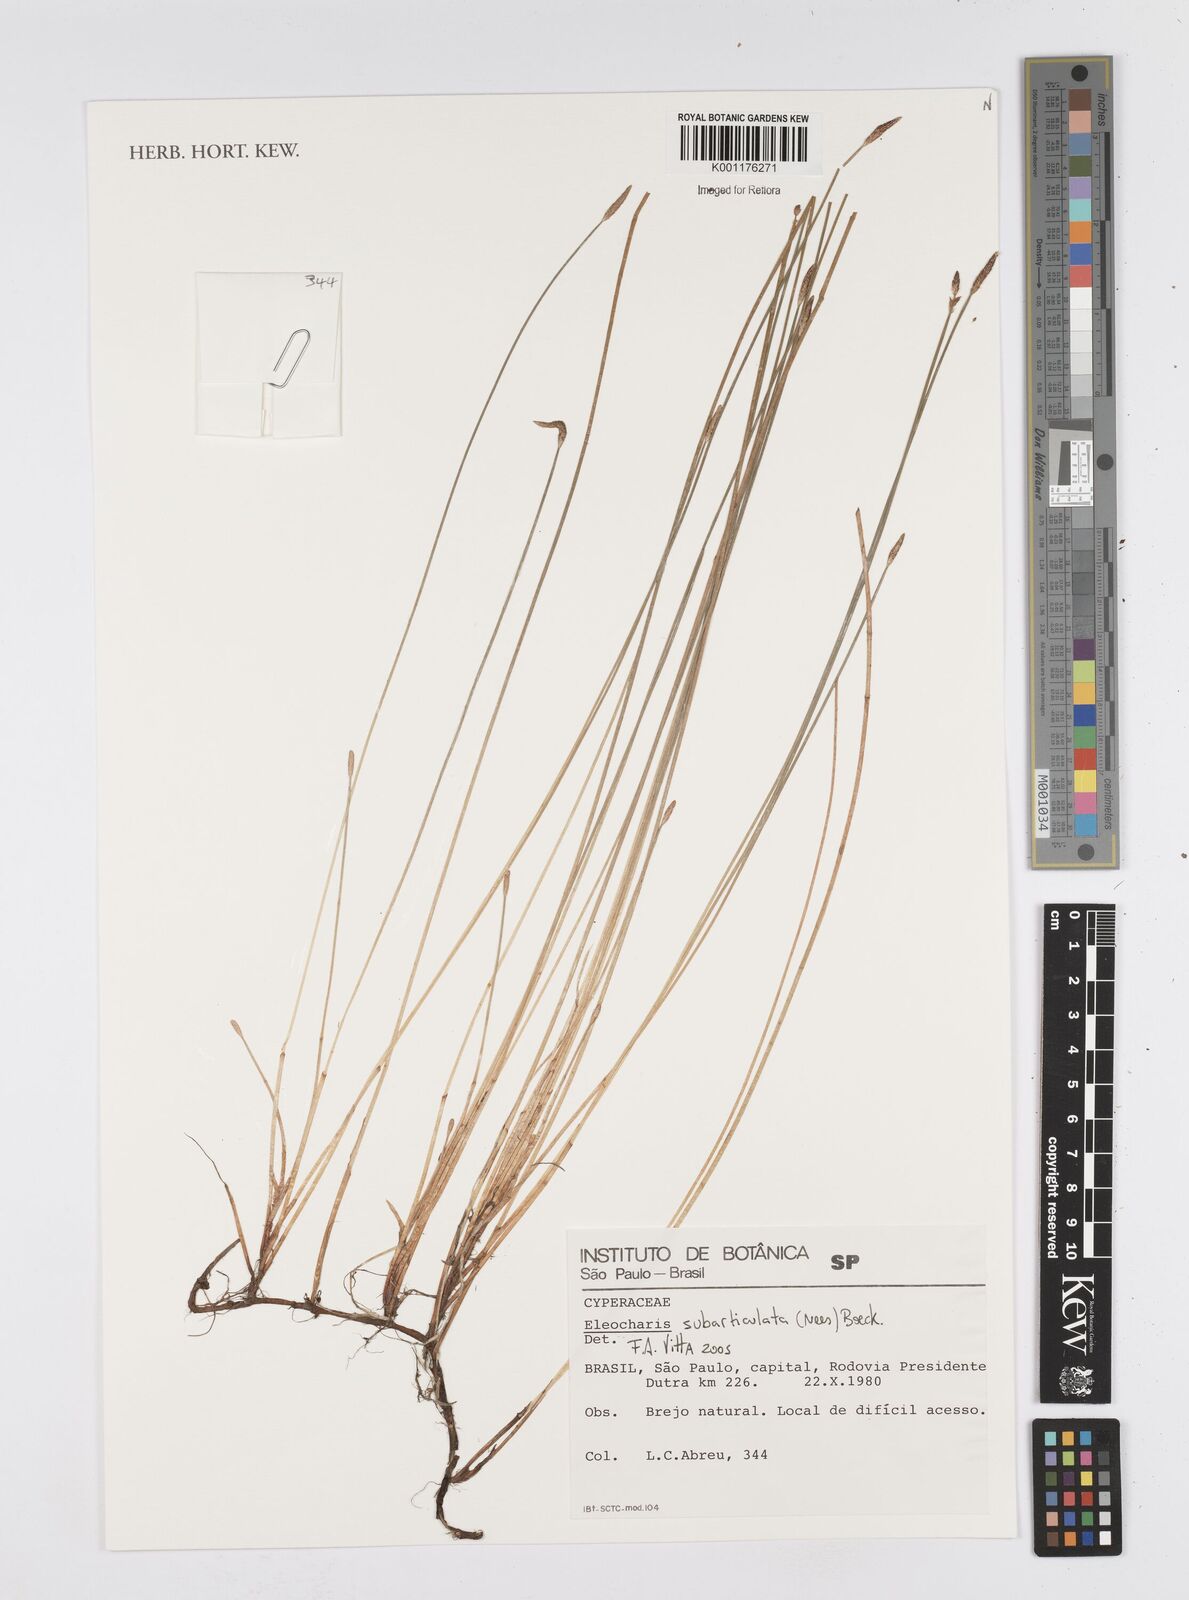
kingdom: Plantae
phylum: Tracheophyta
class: Liliopsida
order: Poales
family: Cyperaceae
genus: Eleocharis
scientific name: Eleocharis subarticulata
